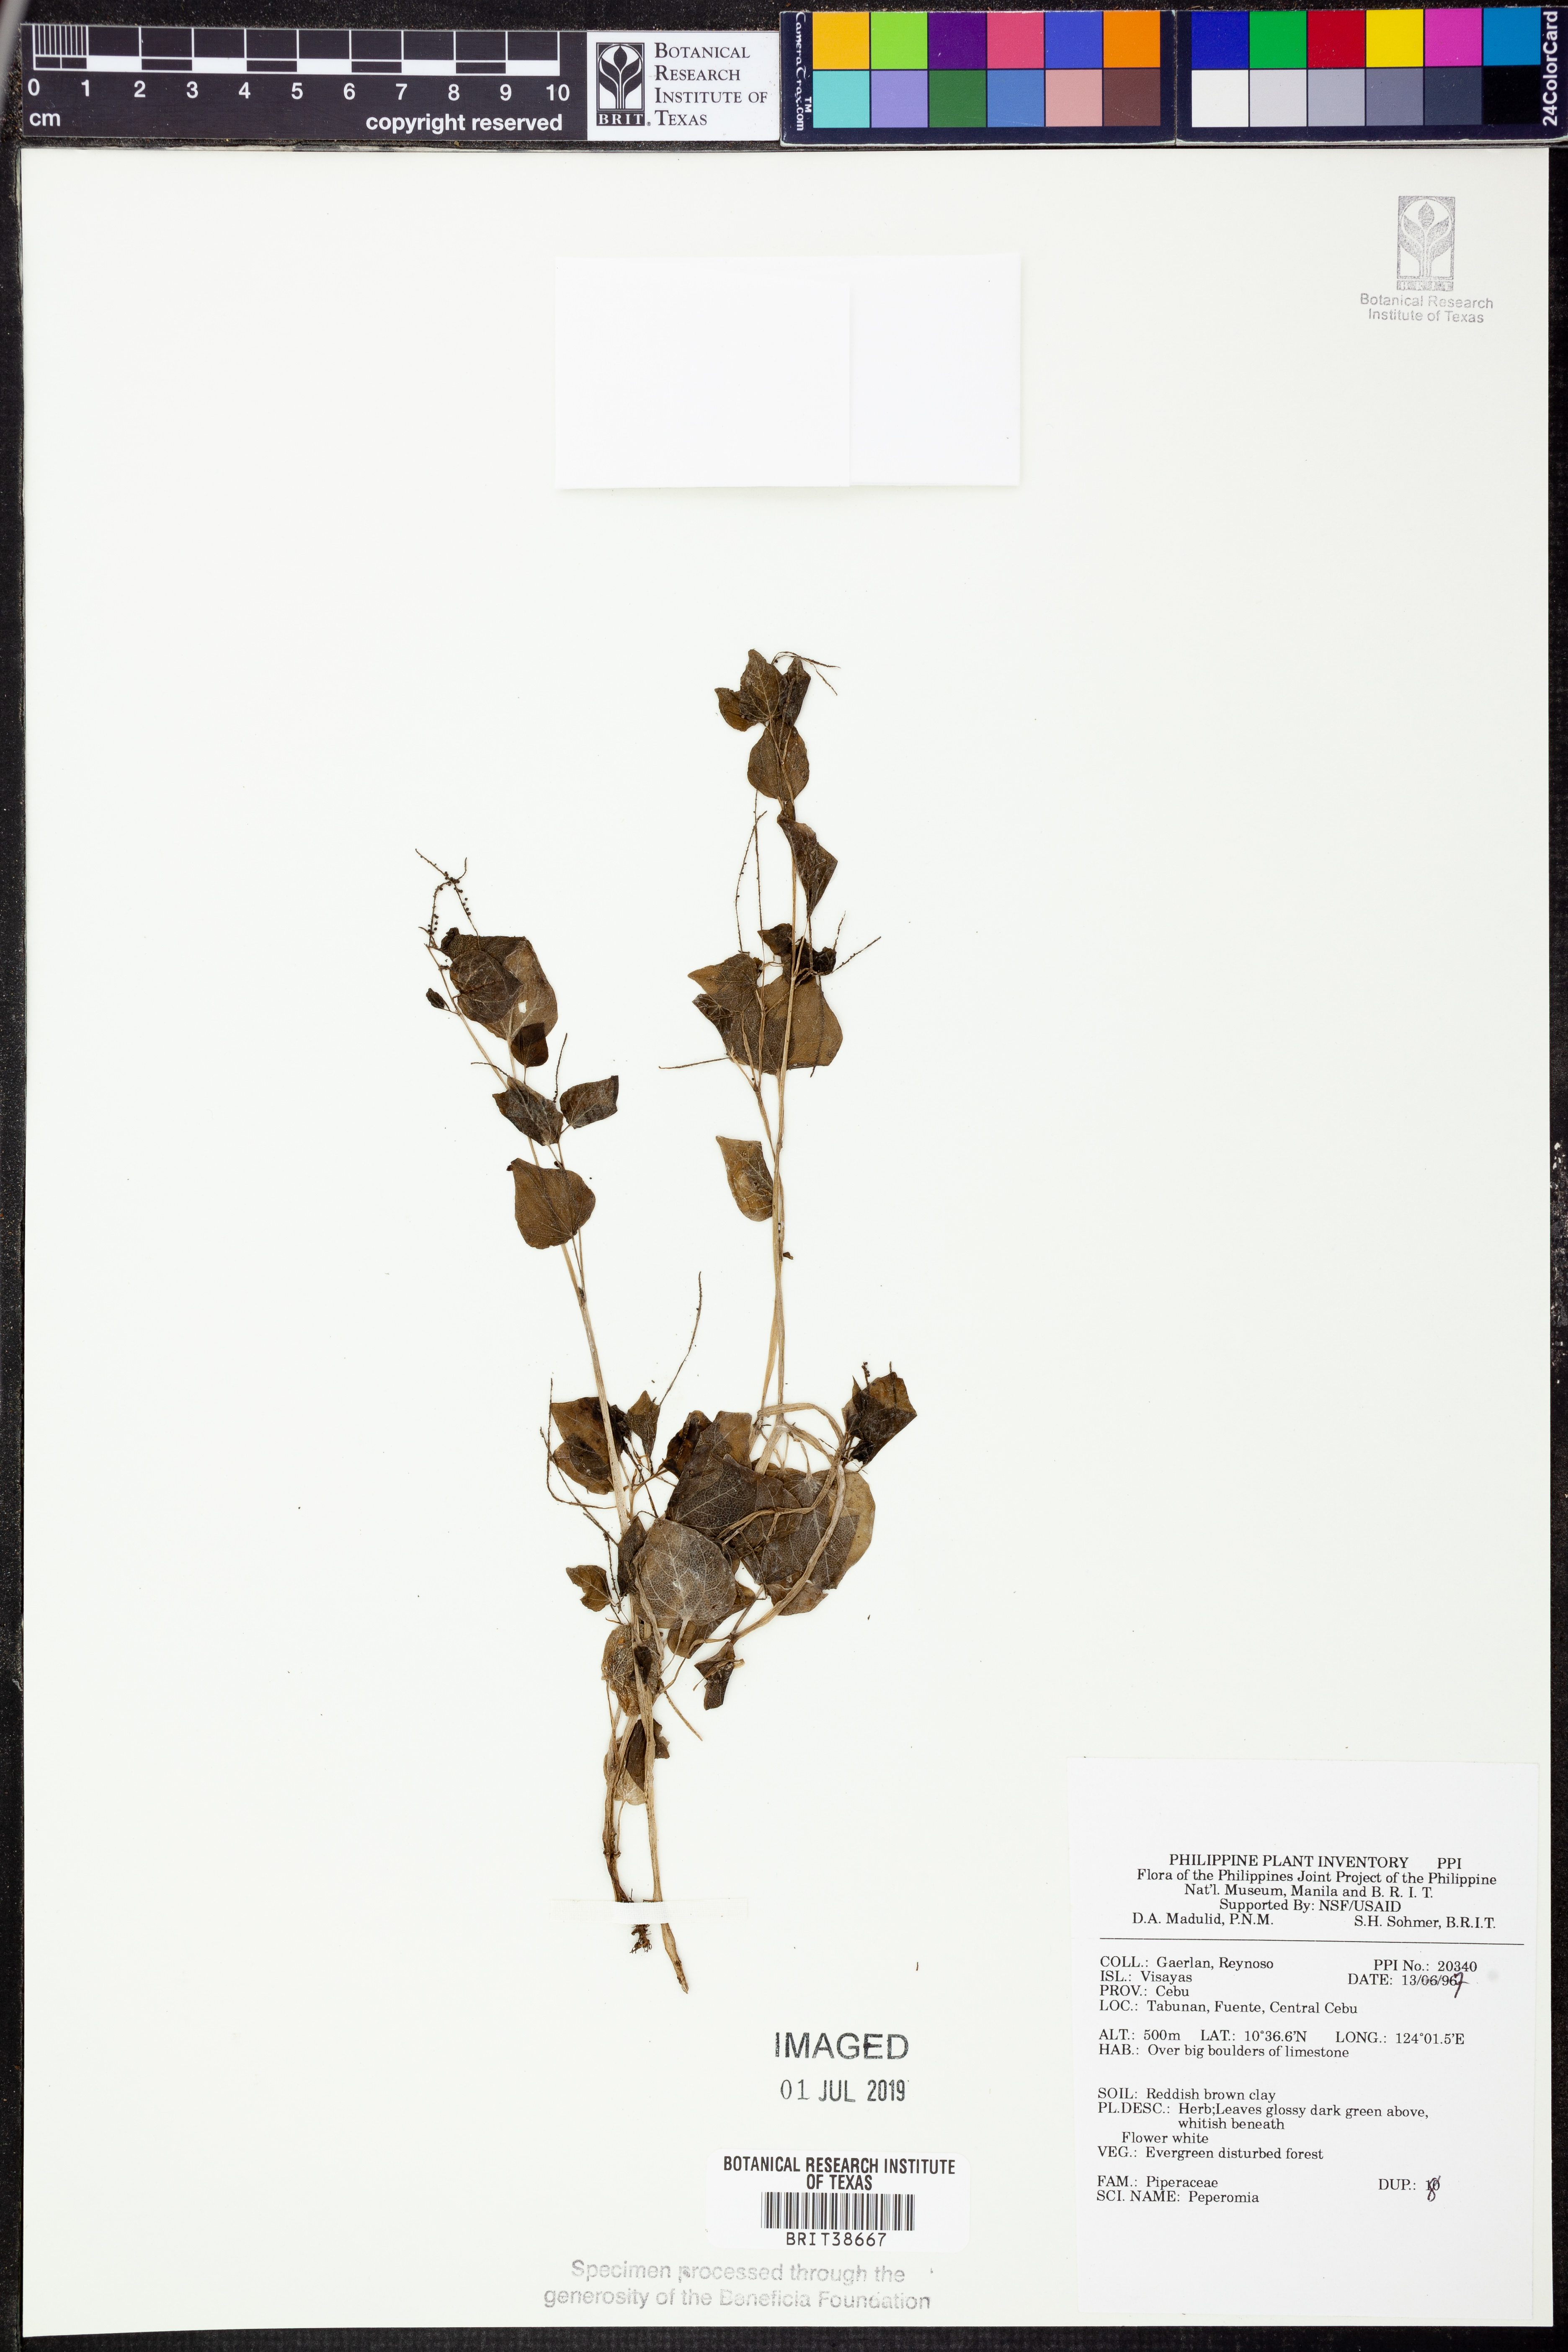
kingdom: Plantae
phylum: Tracheophyta
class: Magnoliopsida
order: Piperales
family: Piperaceae
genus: Peperomia
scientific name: Peperomia
